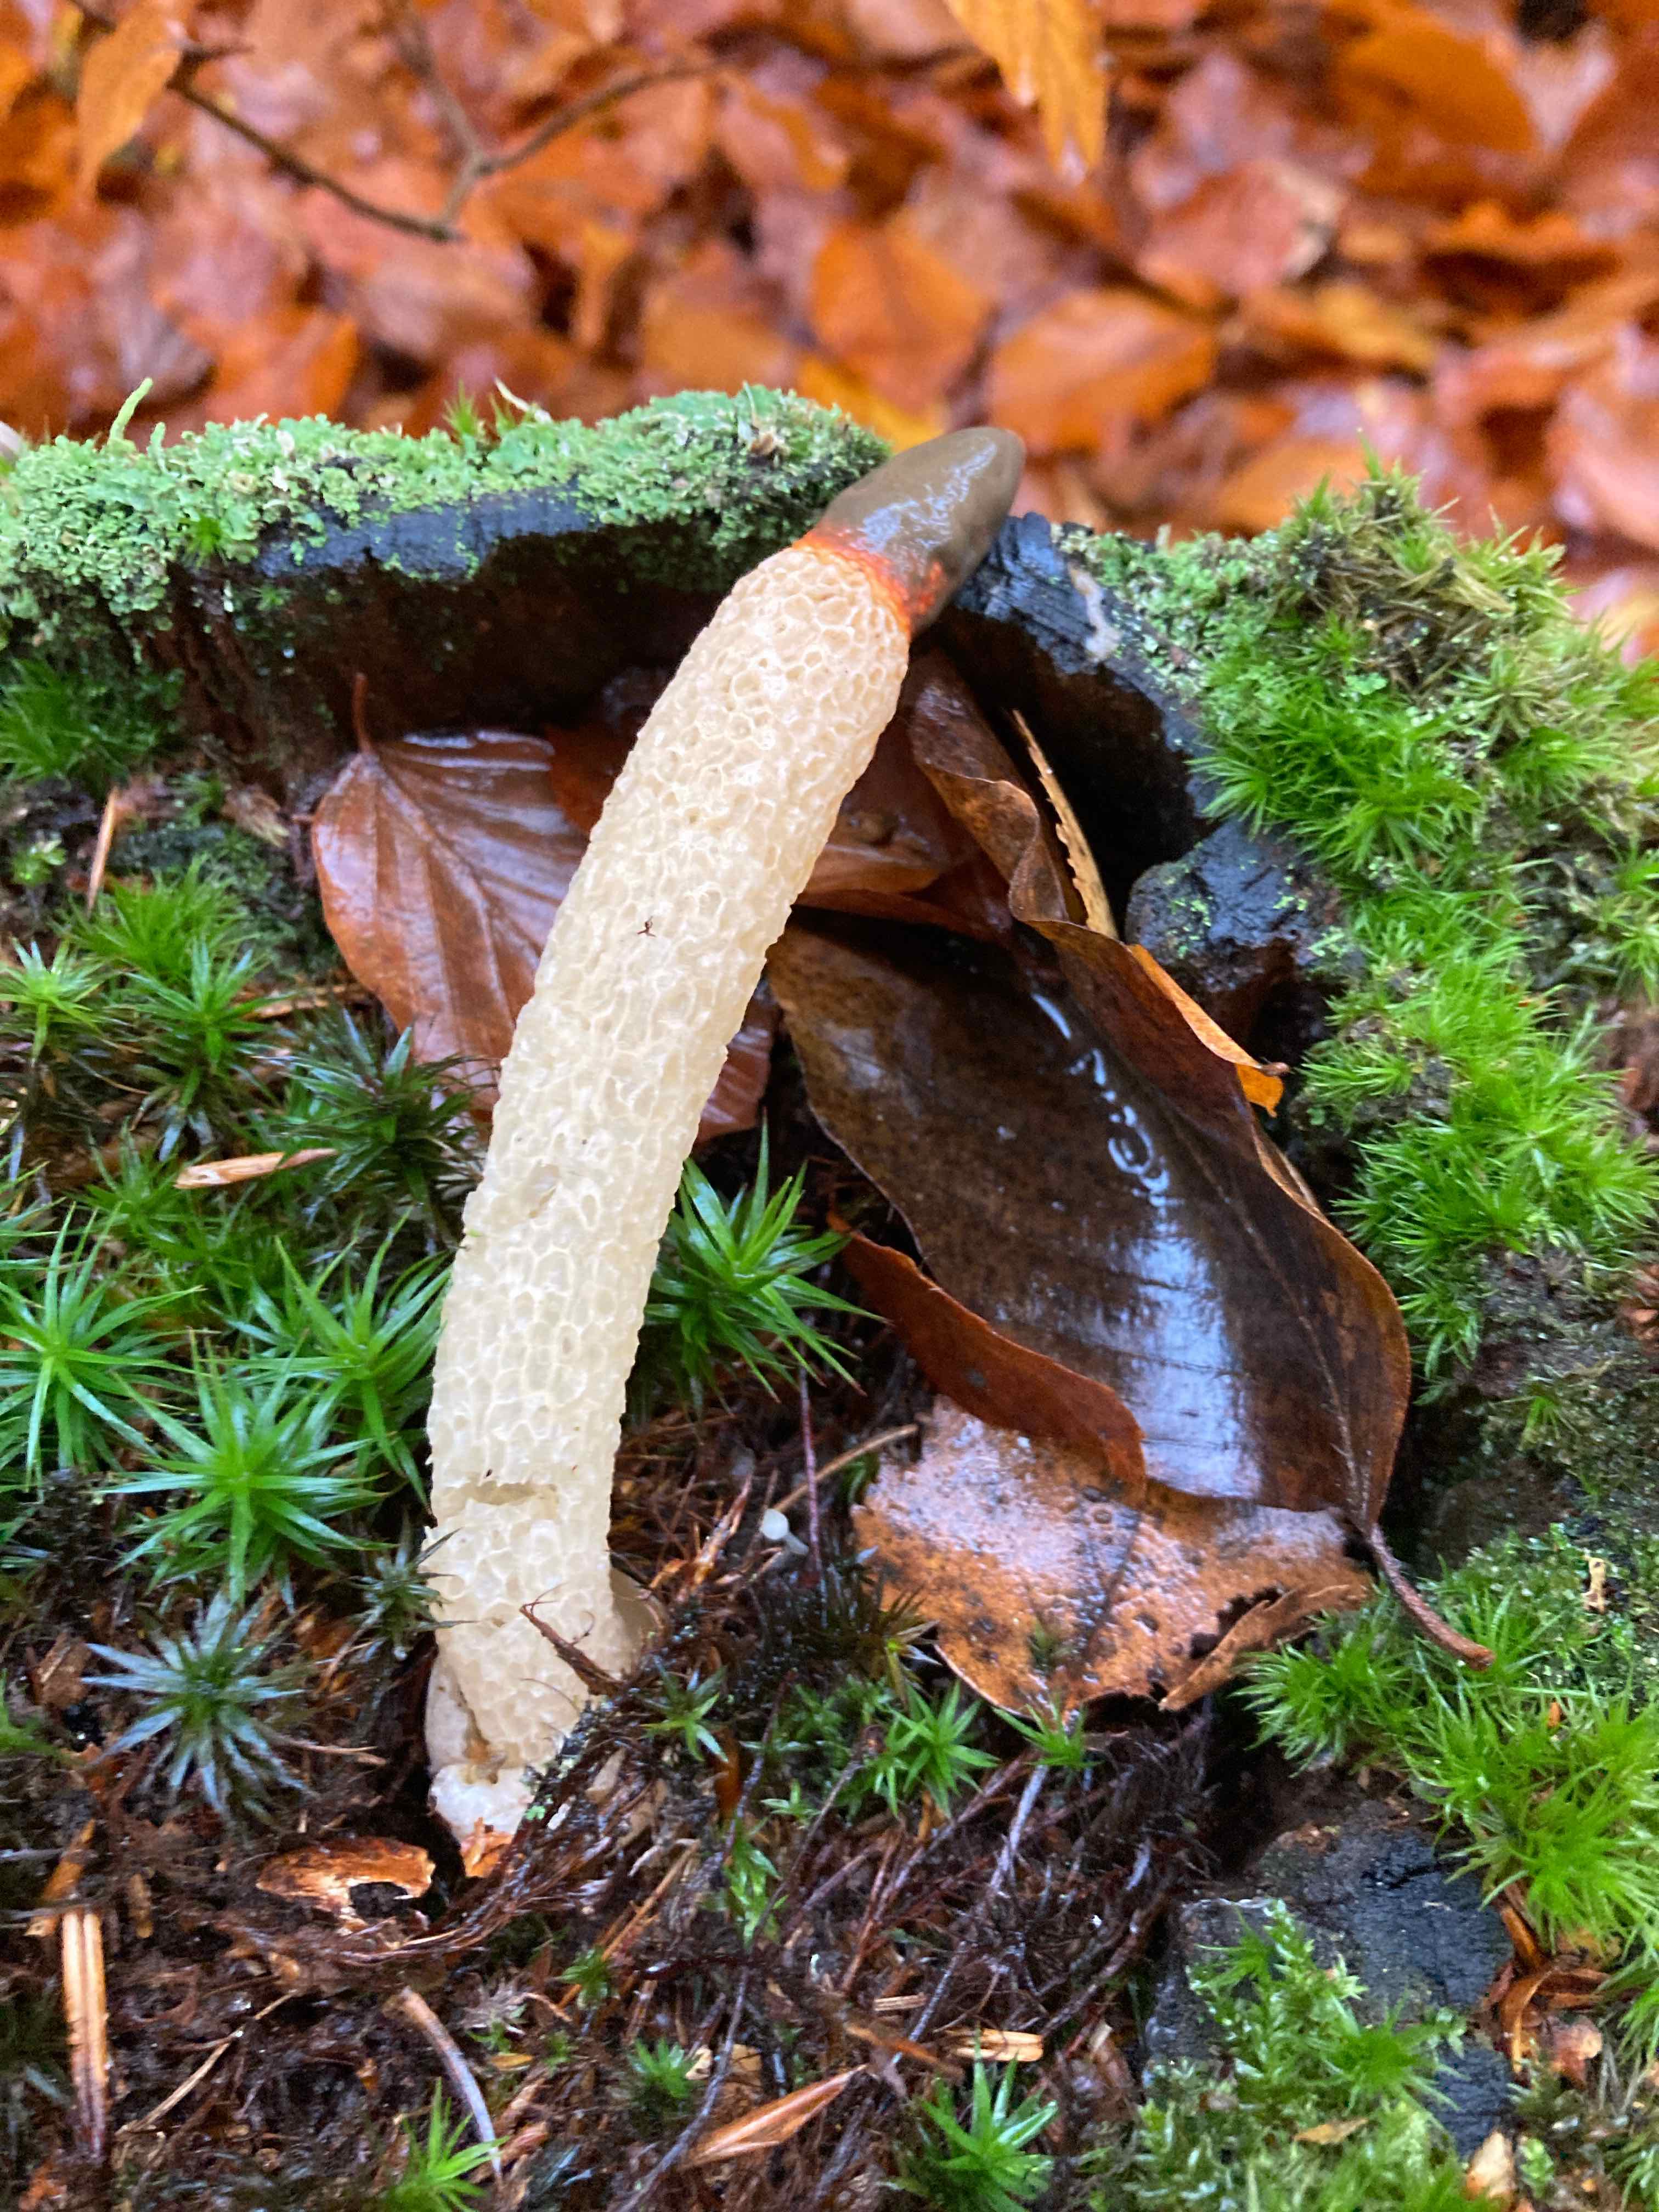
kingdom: Fungi
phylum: Basidiomycota
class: Agaricomycetes
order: Phallales
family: Phallaceae
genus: Mutinus
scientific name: Mutinus caninus
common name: hunde-stinksvamp
